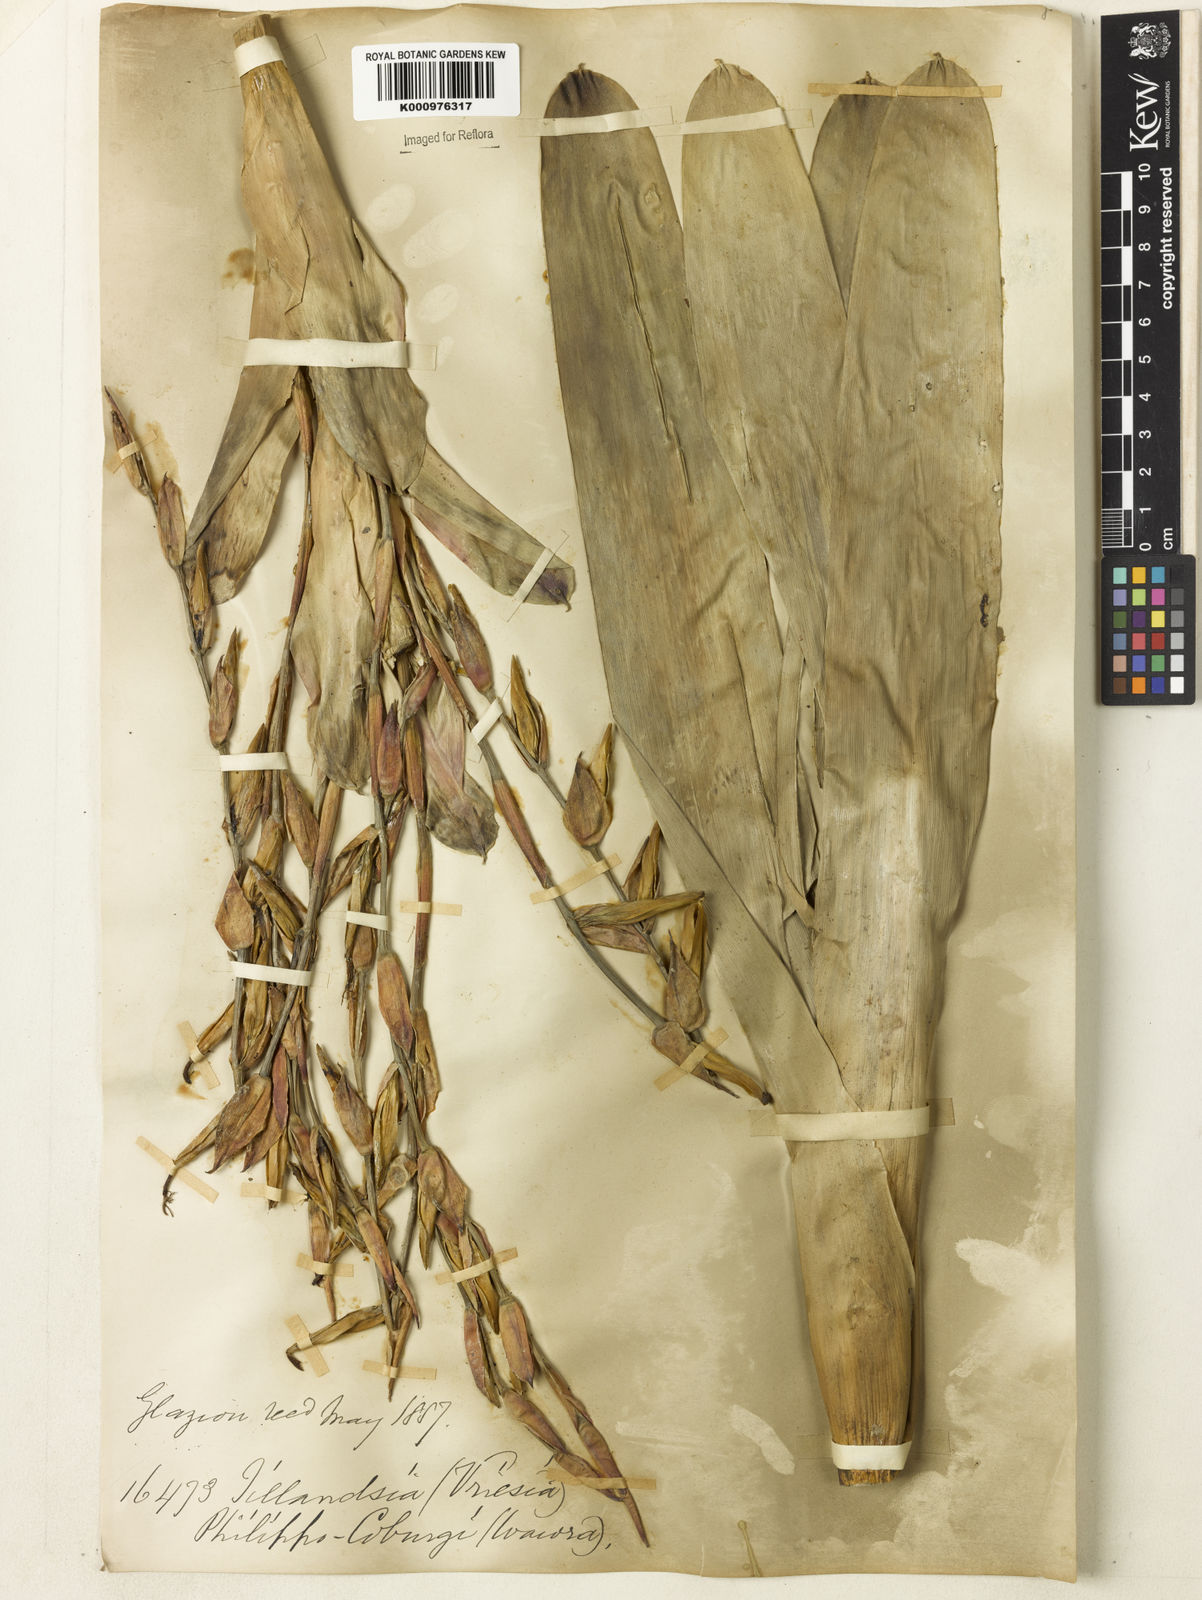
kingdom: Plantae
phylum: Tracheophyta
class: Liliopsida
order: Poales
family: Bromeliaceae
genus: Vriesea
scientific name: Vriesea philippocoburgi
